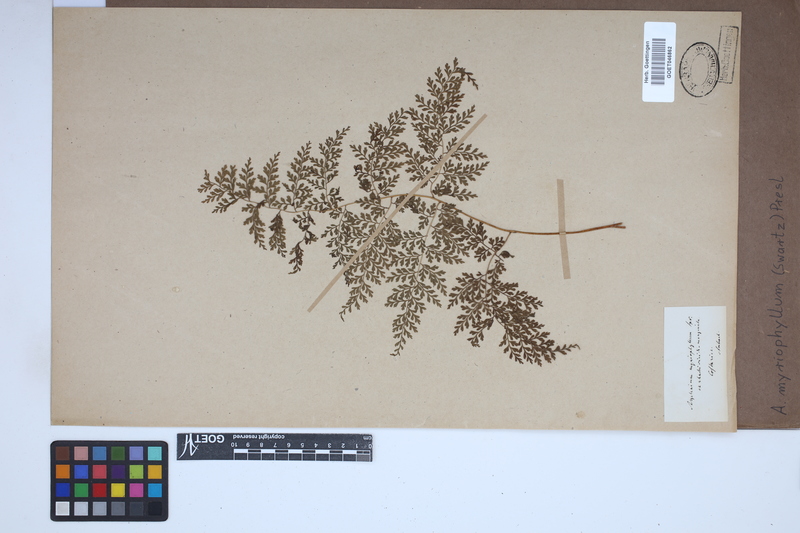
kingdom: Plantae
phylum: Tracheophyta
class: Polypodiopsida
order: Polypodiales
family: Aspleniaceae
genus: Asplenium
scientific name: Asplenium myriophyllum
